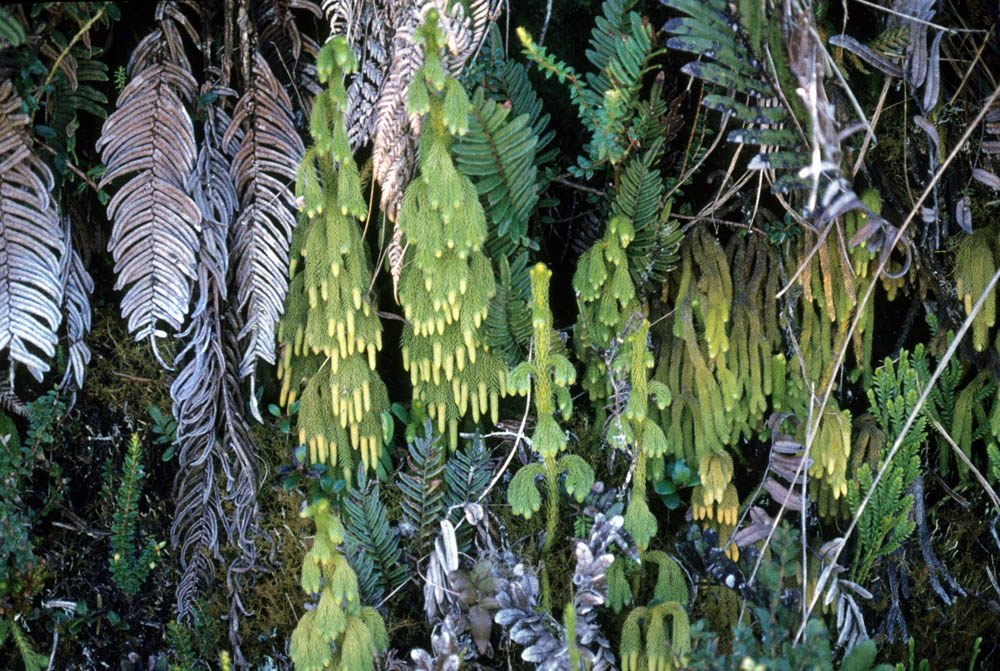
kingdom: Plantae
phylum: Tracheophyta
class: Lycopodiopsida
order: Lycopodiales
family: Lycopodiaceae
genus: Palhinhaea
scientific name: Palhinhaea pendulina
